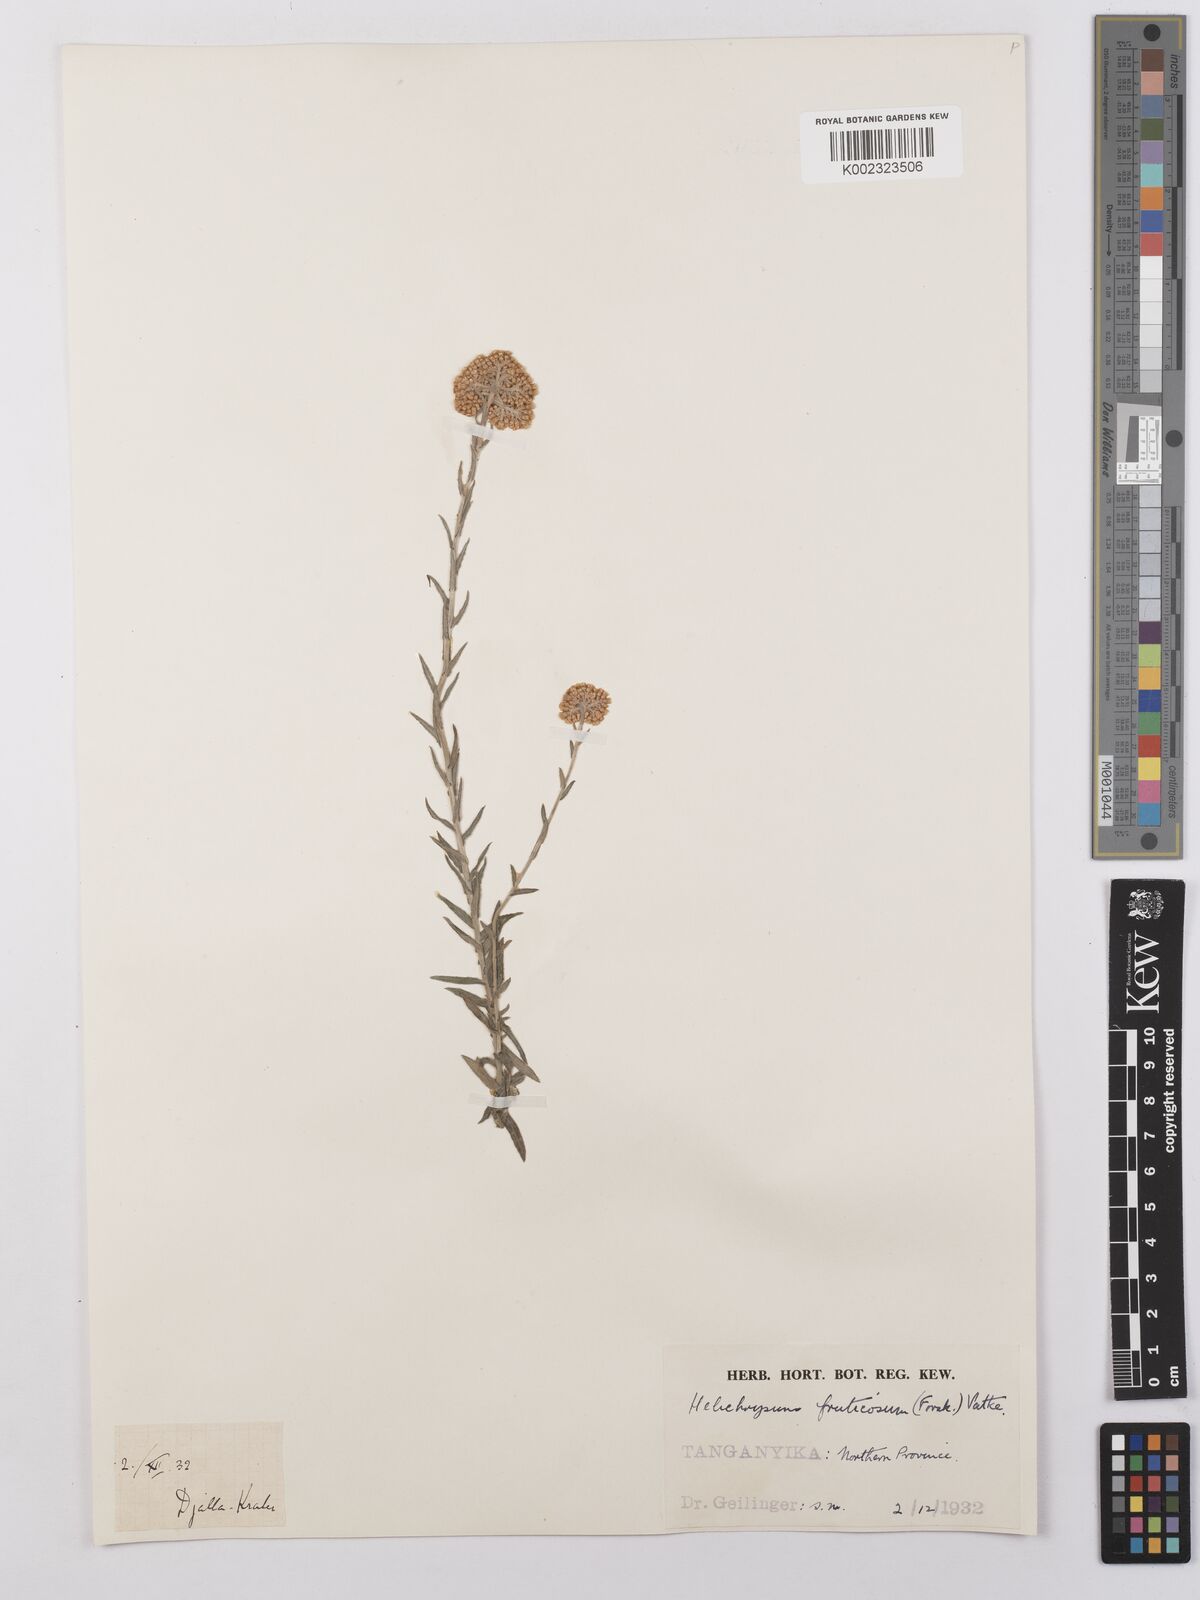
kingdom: Plantae
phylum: Tracheophyta
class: Magnoliopsida
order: Asterales
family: Asteraceae
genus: Helichrysum
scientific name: Helichrysum forskahlii
